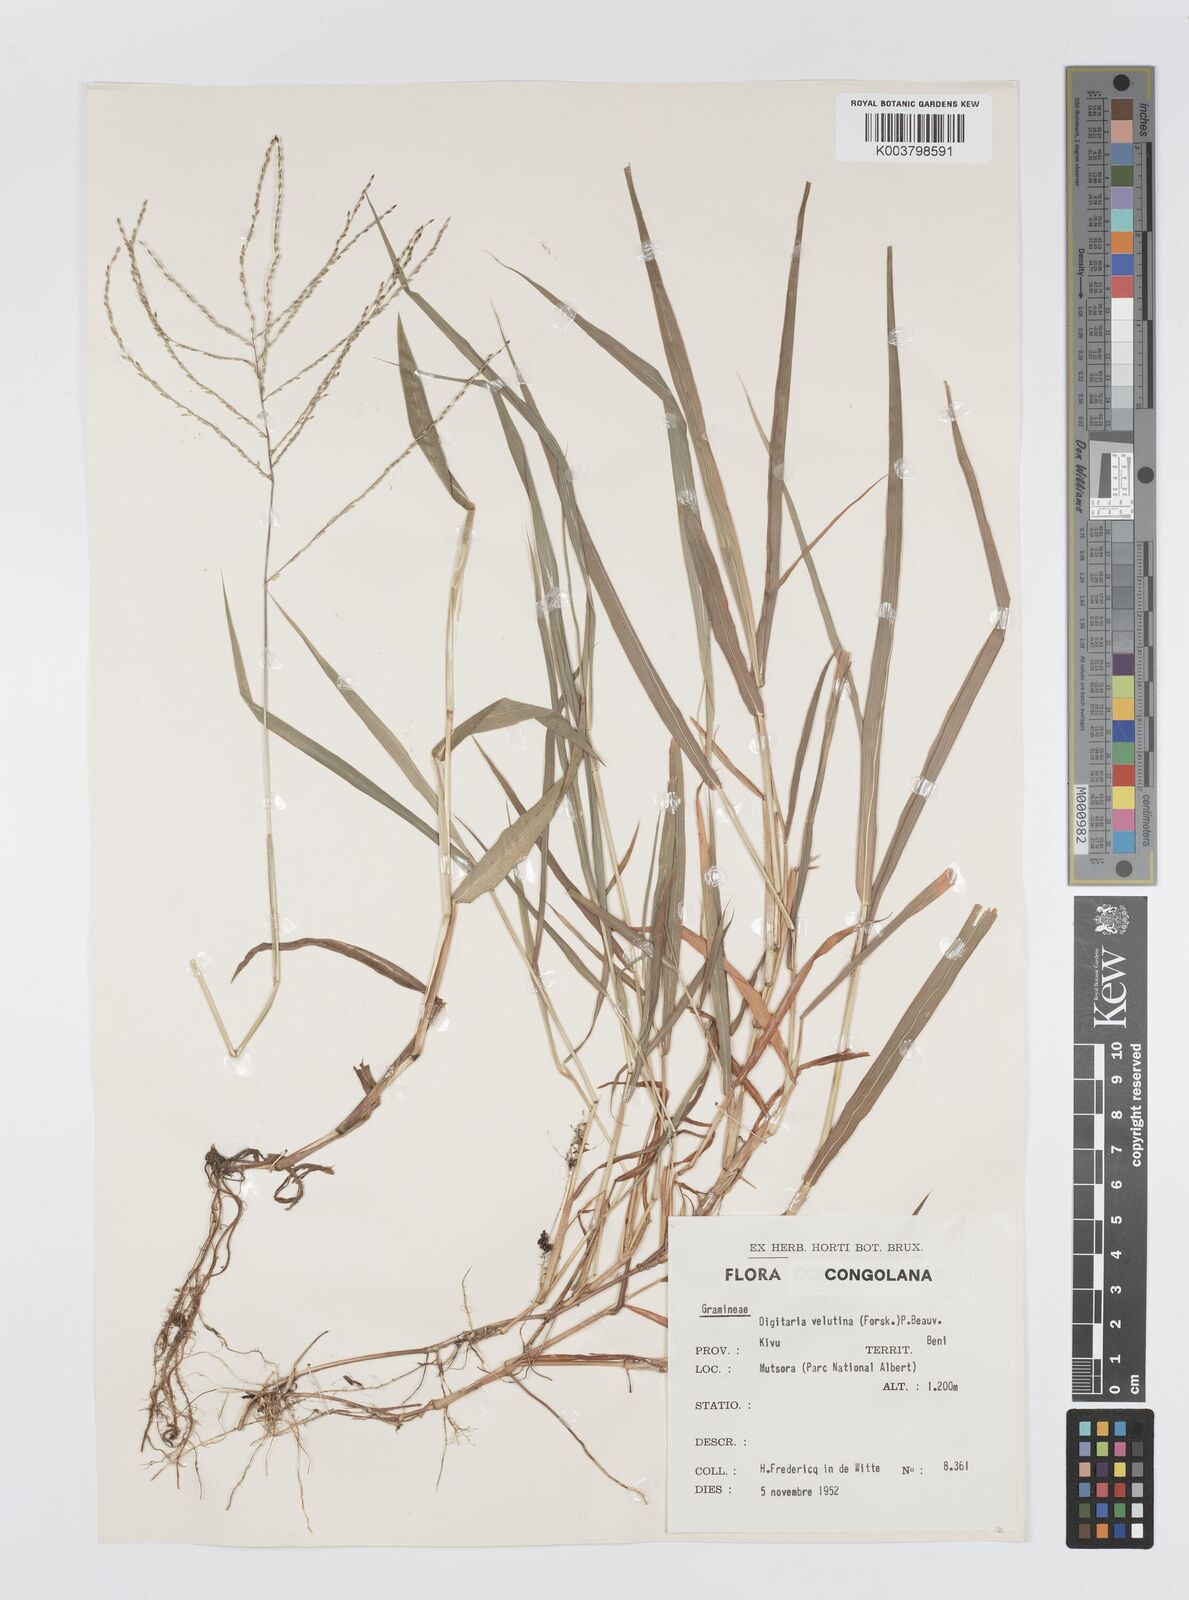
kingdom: Plantae
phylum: Tracheophyta
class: Liliopsida
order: Poales
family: Poaceae
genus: Digitaria
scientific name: Digitaria pearsonii
